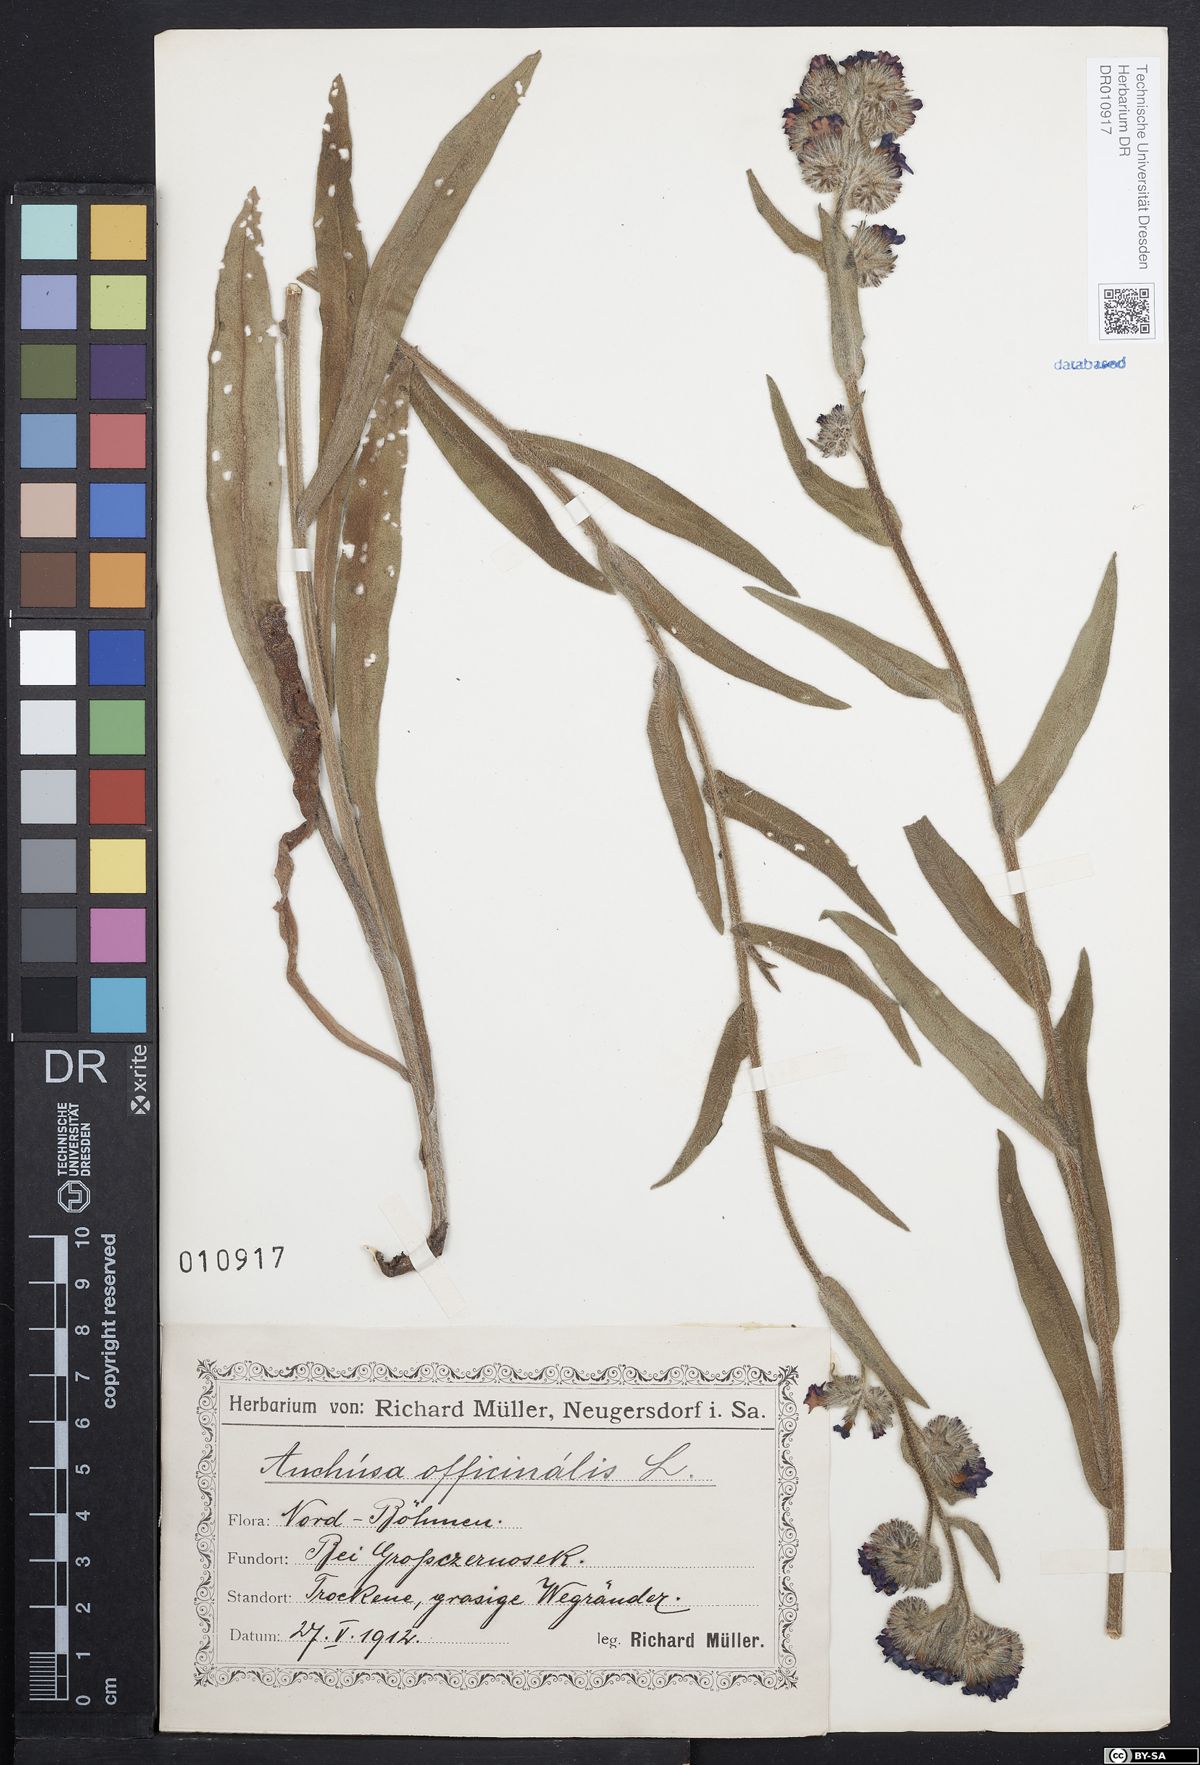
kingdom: Plantae
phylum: Tracheophyta
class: Magnoliopsida
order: Boraginales
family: Boraginaceae
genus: Anchusa
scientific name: Anchusa officinalis
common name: Alkanet
